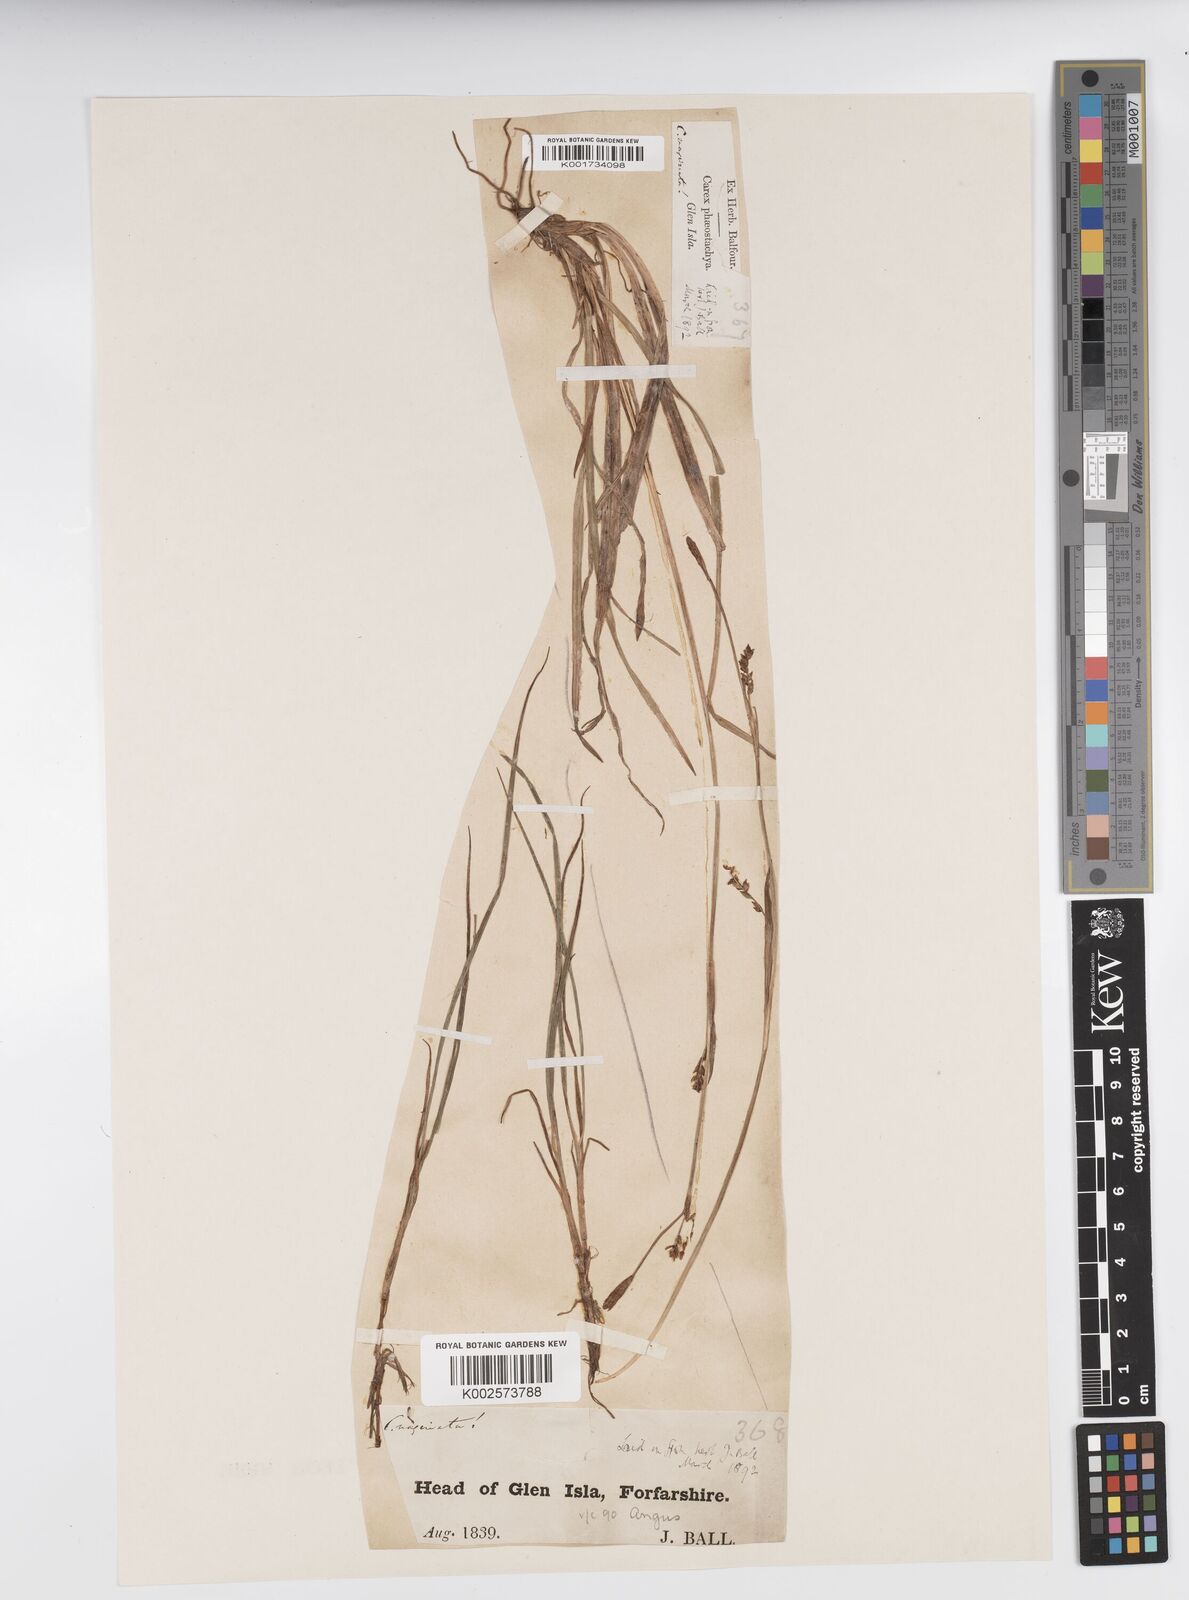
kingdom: Plantae
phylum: Tracheophyta
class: Liliopsida
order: Poales
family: Cyperaceae
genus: Carex
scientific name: Carex vaginata
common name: Sheathed sedge
